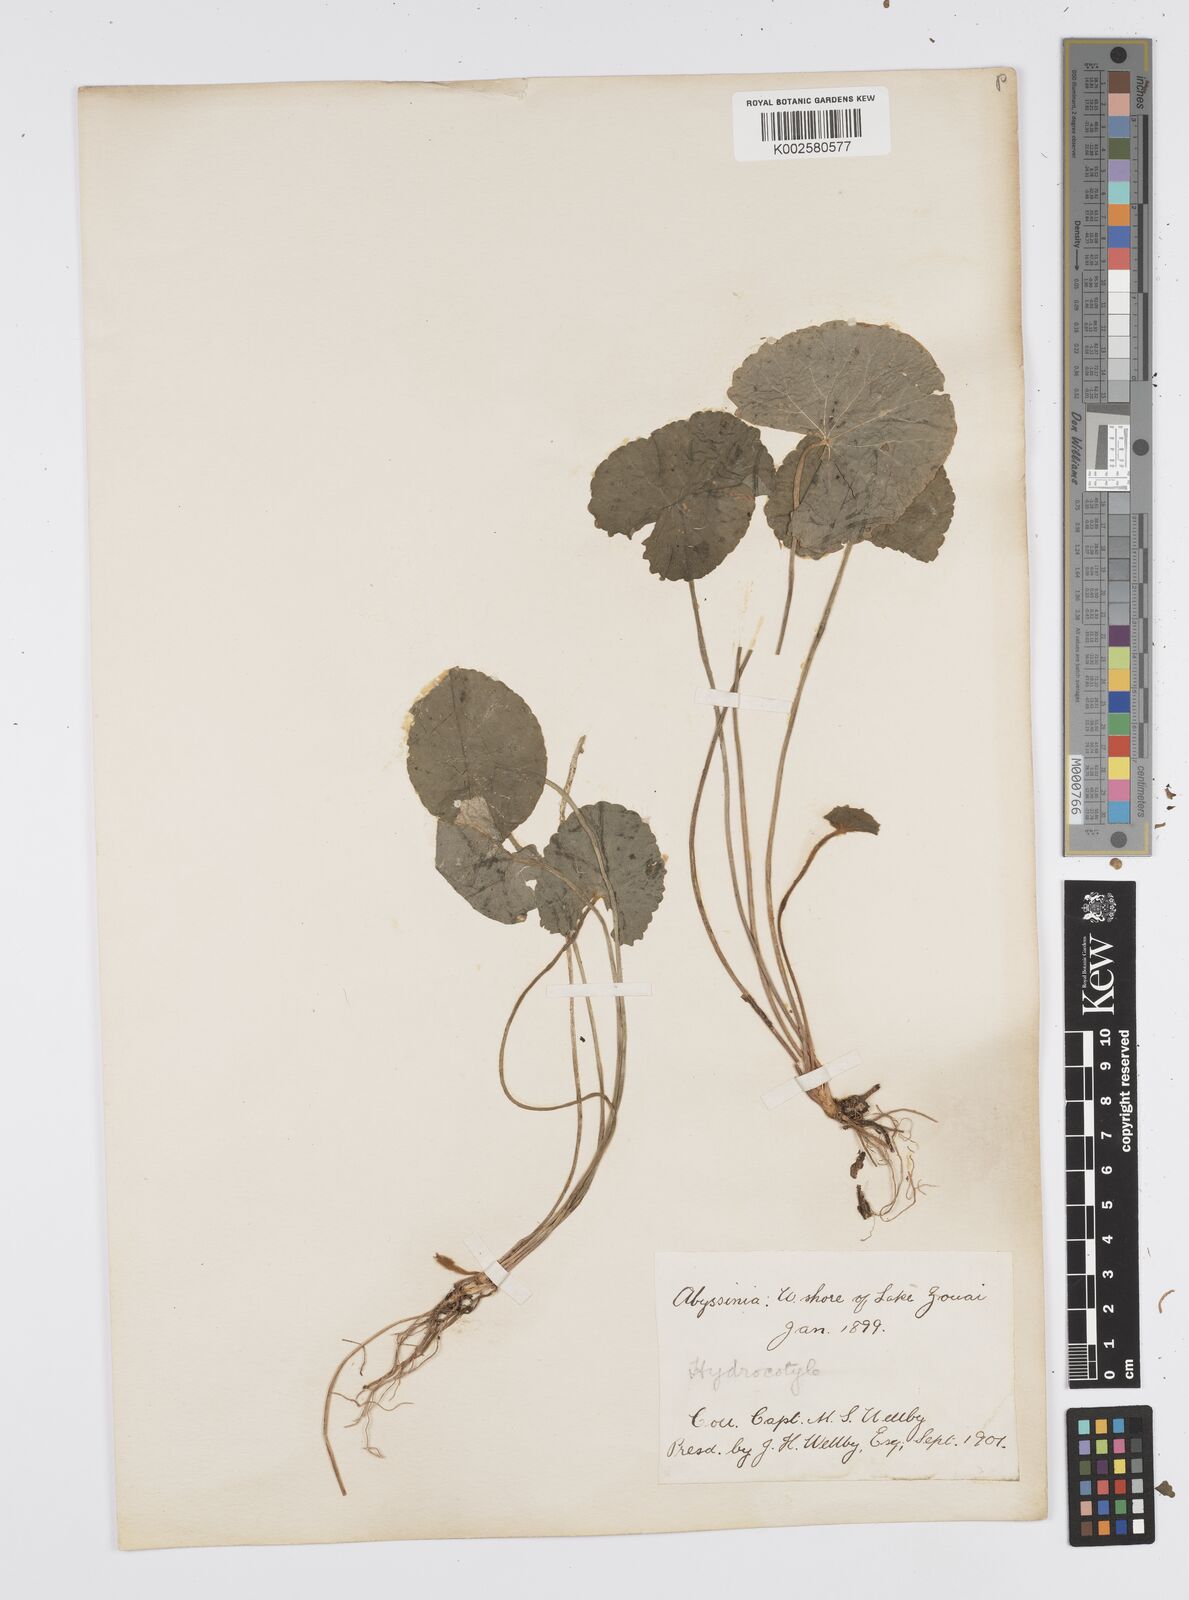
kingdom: Plantae
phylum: Tracheophyta
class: Magnoliopsida
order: Apiales
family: Apiaceae
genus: Centella
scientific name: Centella asiatica
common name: Spadeleaf
